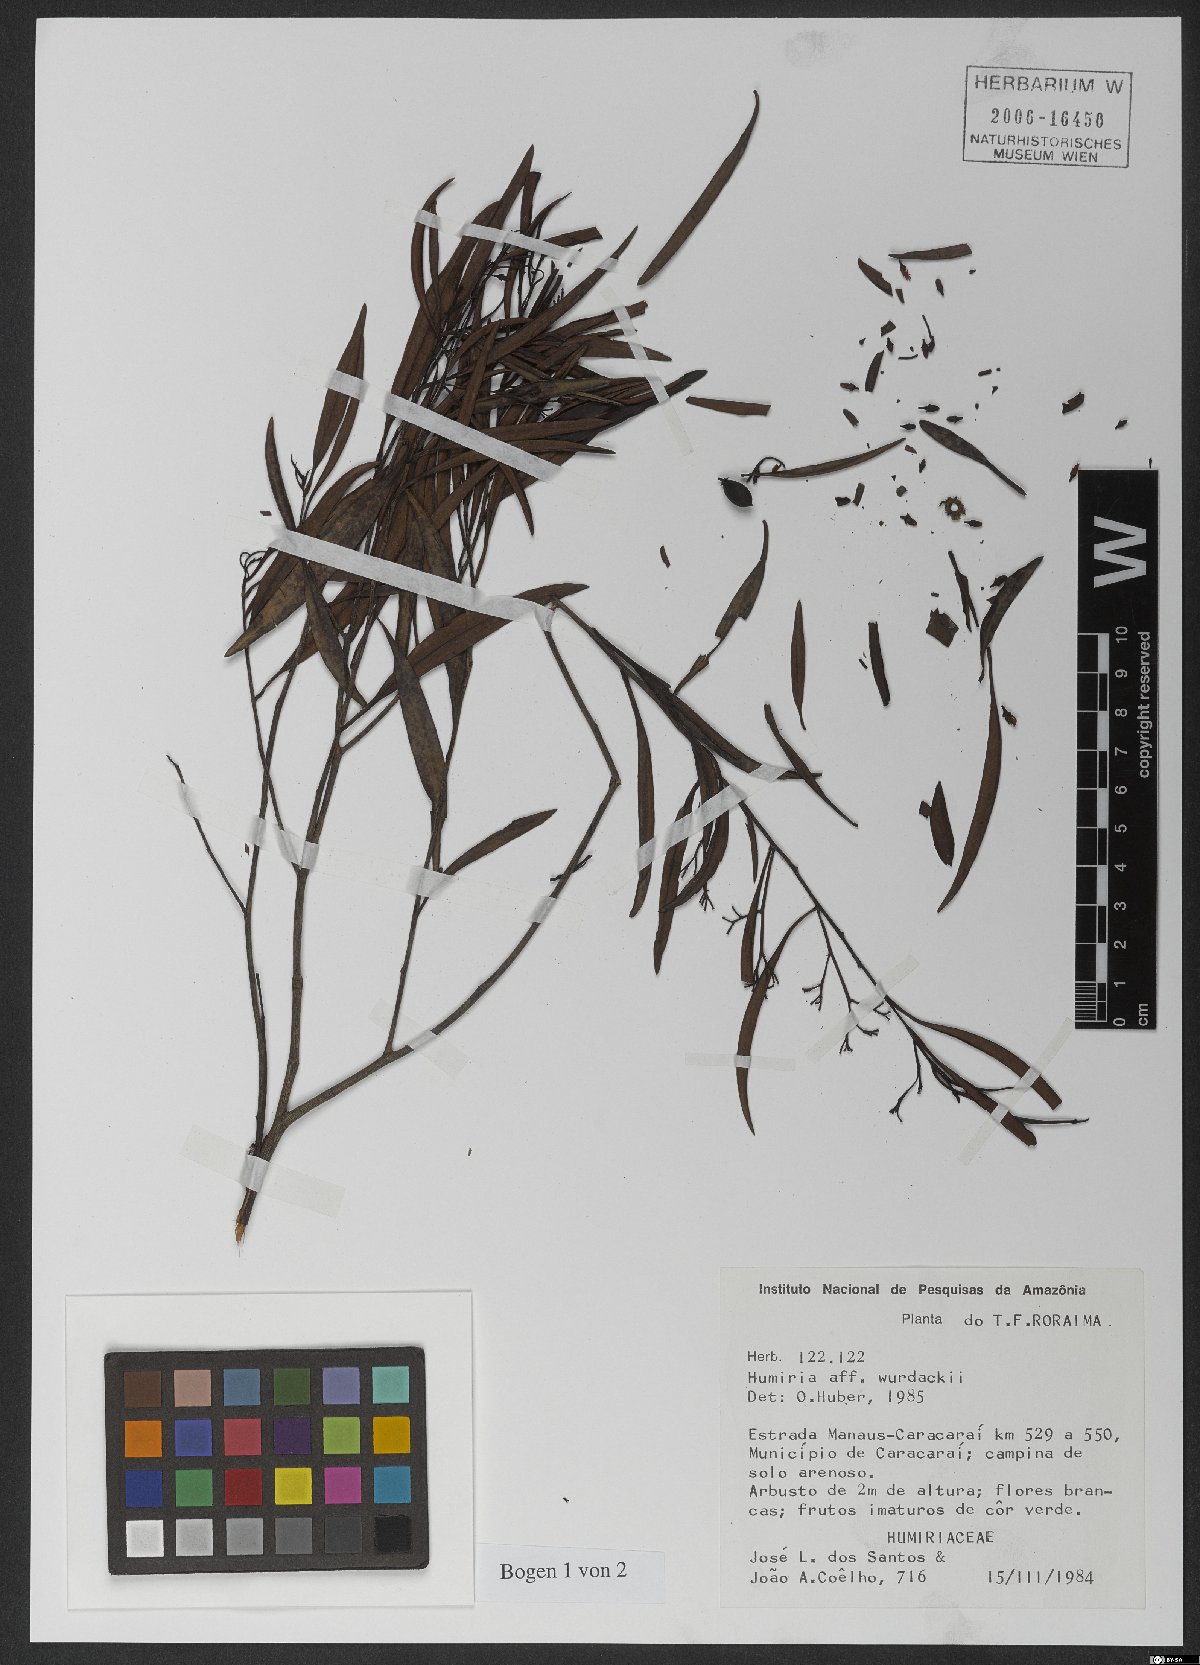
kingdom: Plantae
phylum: Tracheophyta
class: Magnoliopsida
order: Malpighiales
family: Humiriaceae
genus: Humiria
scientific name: Humiria wurdackii
